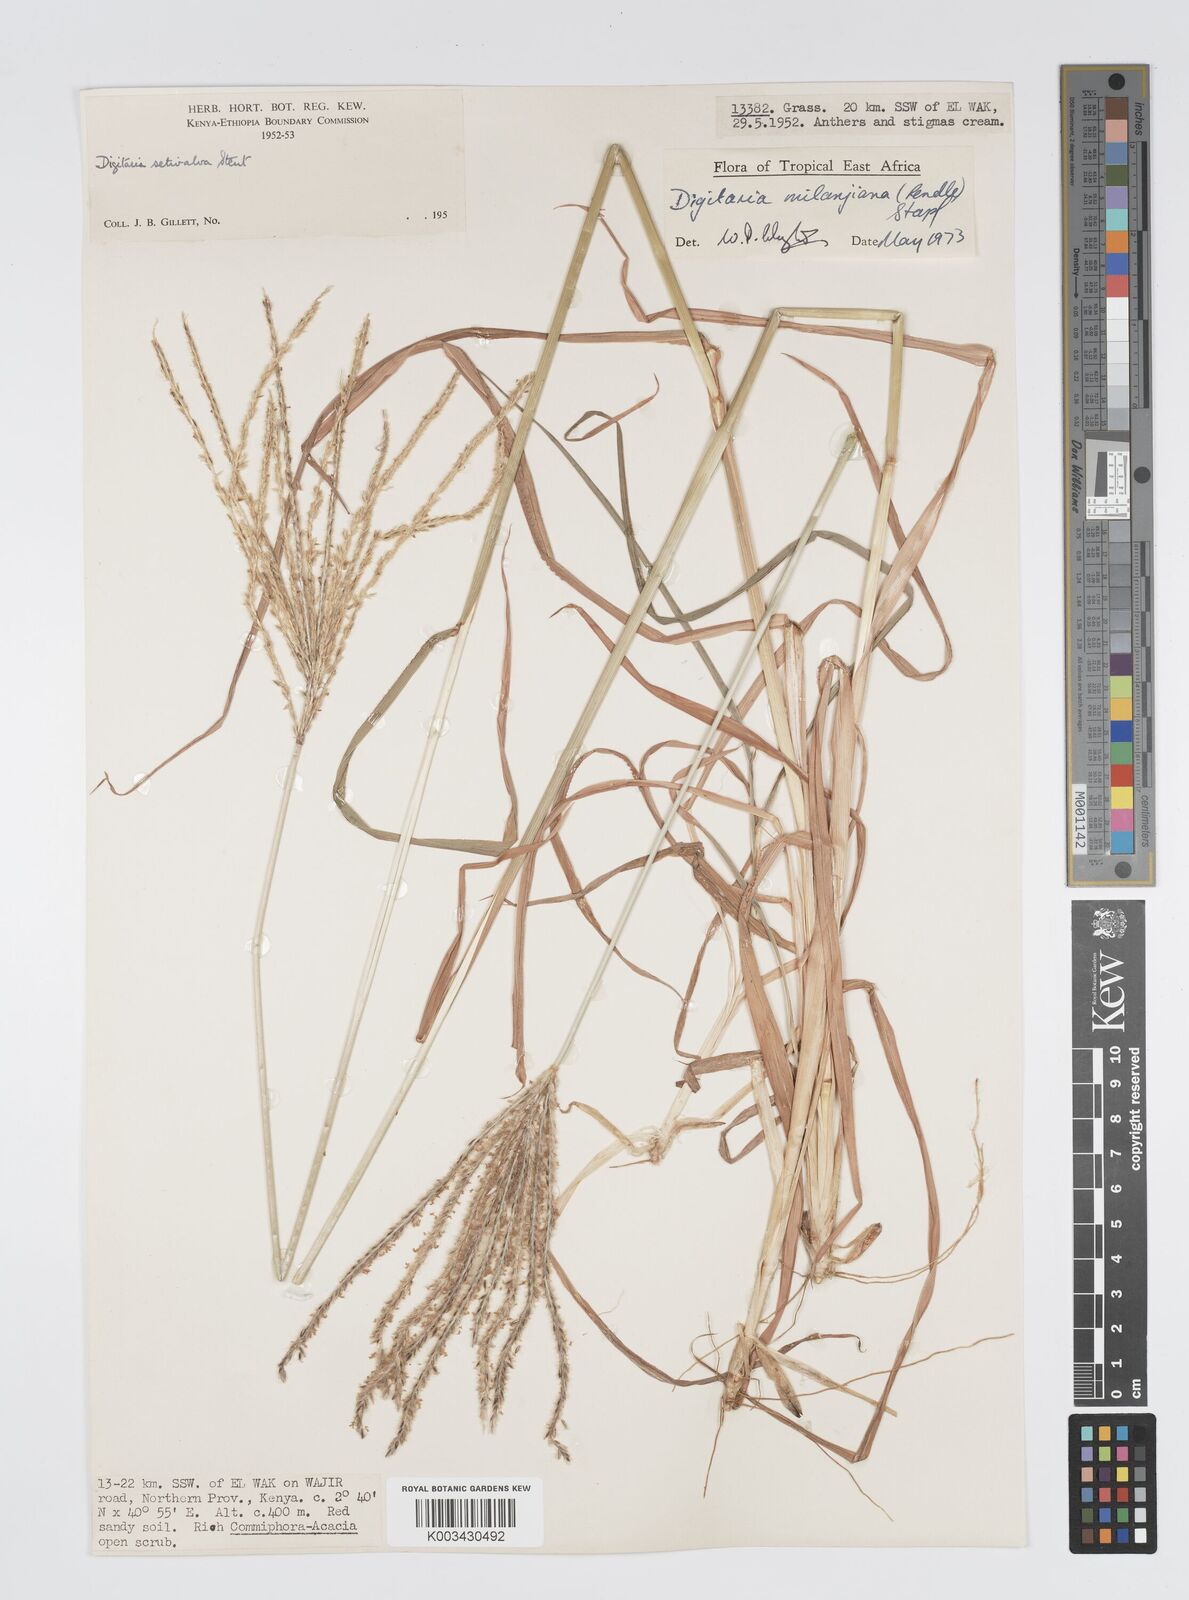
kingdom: Plantae
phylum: Tracheophyta
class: Liliopsida
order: Poales
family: Poaceae
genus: Digitaria
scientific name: Digitaria milanjiana
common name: Madagascar crabgrass
